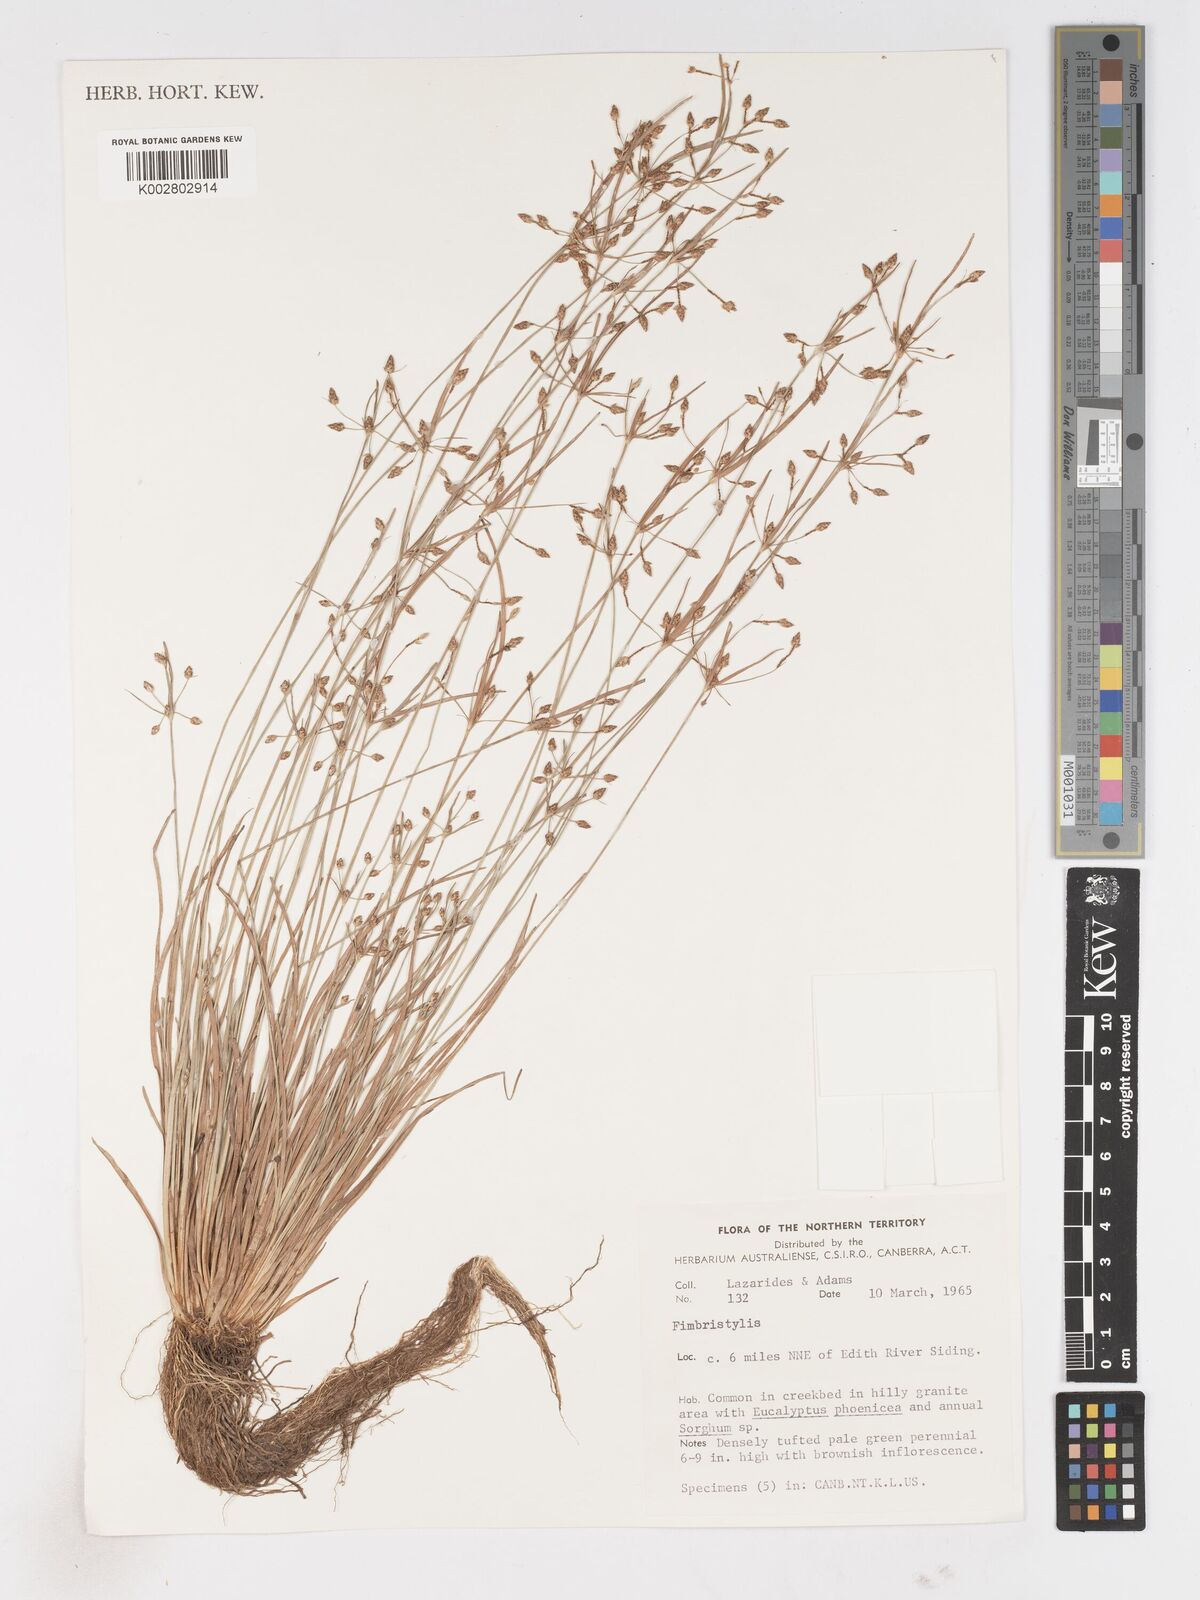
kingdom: Plantae
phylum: Tracheophyta
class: Liliopsida
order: Poales
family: Cyperaceae
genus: Fimbristylis
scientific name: Fimbristylis
